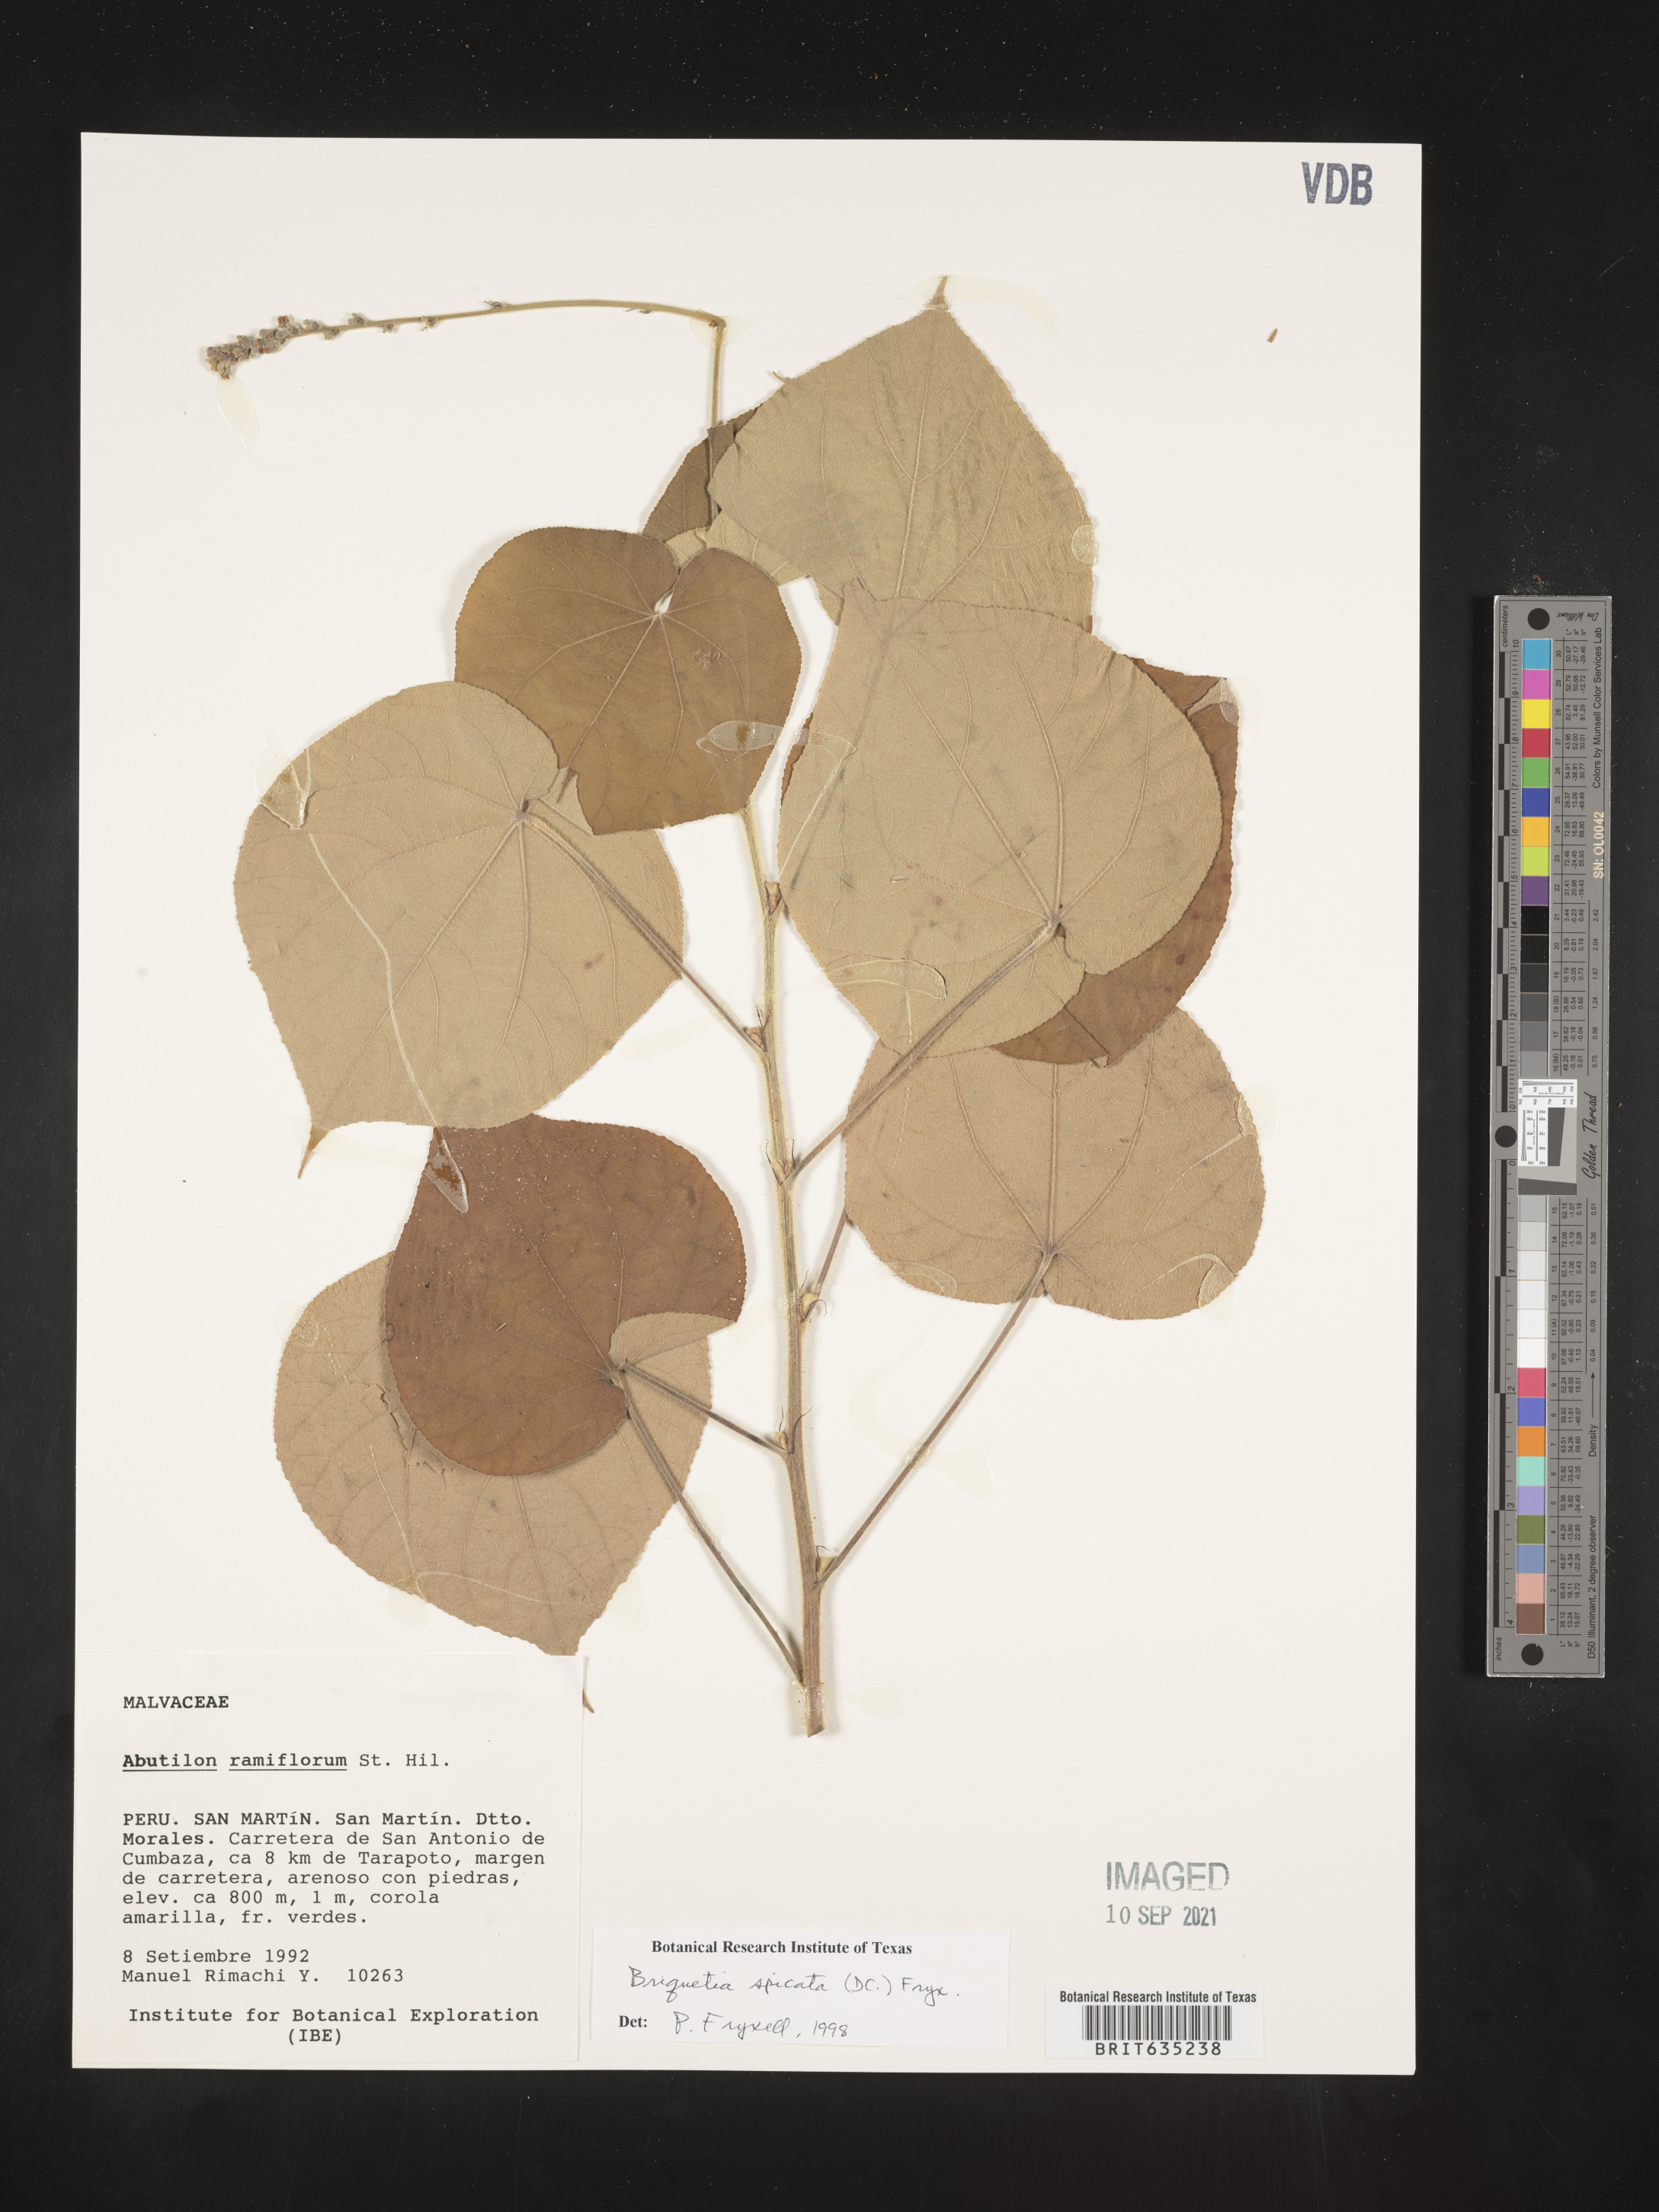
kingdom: Plantae
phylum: Tracheophyta
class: Magnoliopsida
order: Malvales
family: Malvaceae
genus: Briquetia
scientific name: Briquetia
